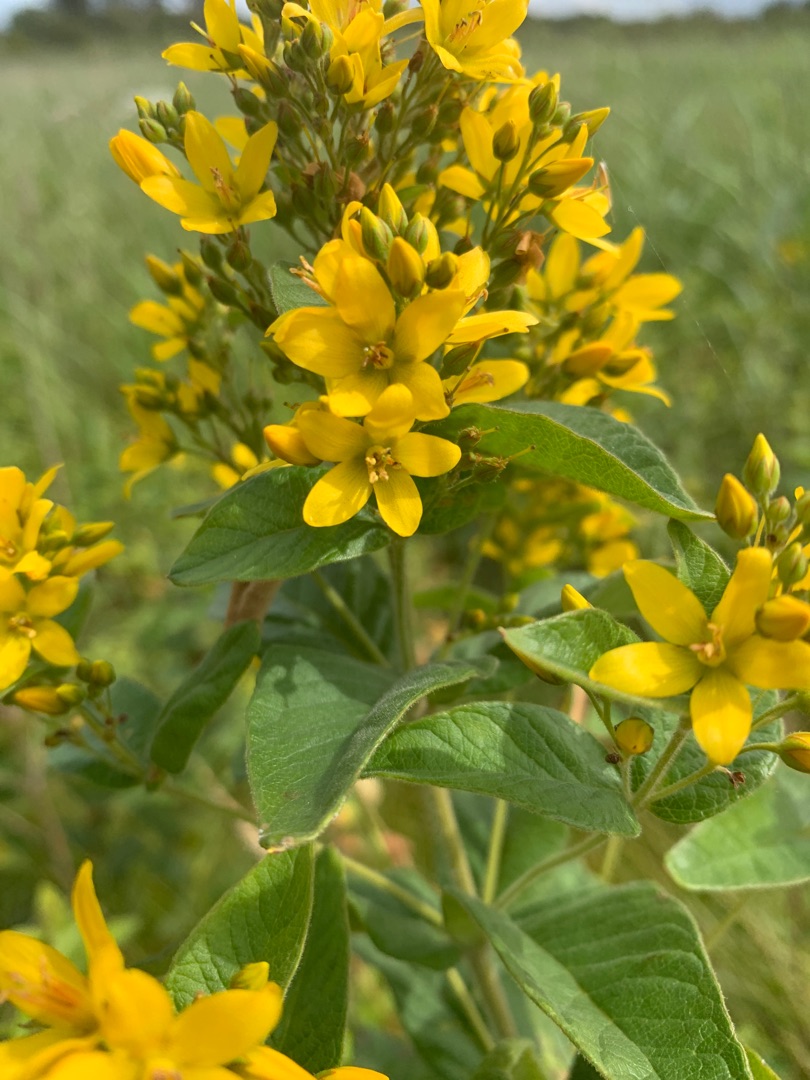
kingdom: Plantae
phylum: Tracheophyta
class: Magnoliopsida
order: Ericales
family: Primulaceae
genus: Lysimachia
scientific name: Lysimachia vulgaris
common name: Almindelig fredløs
